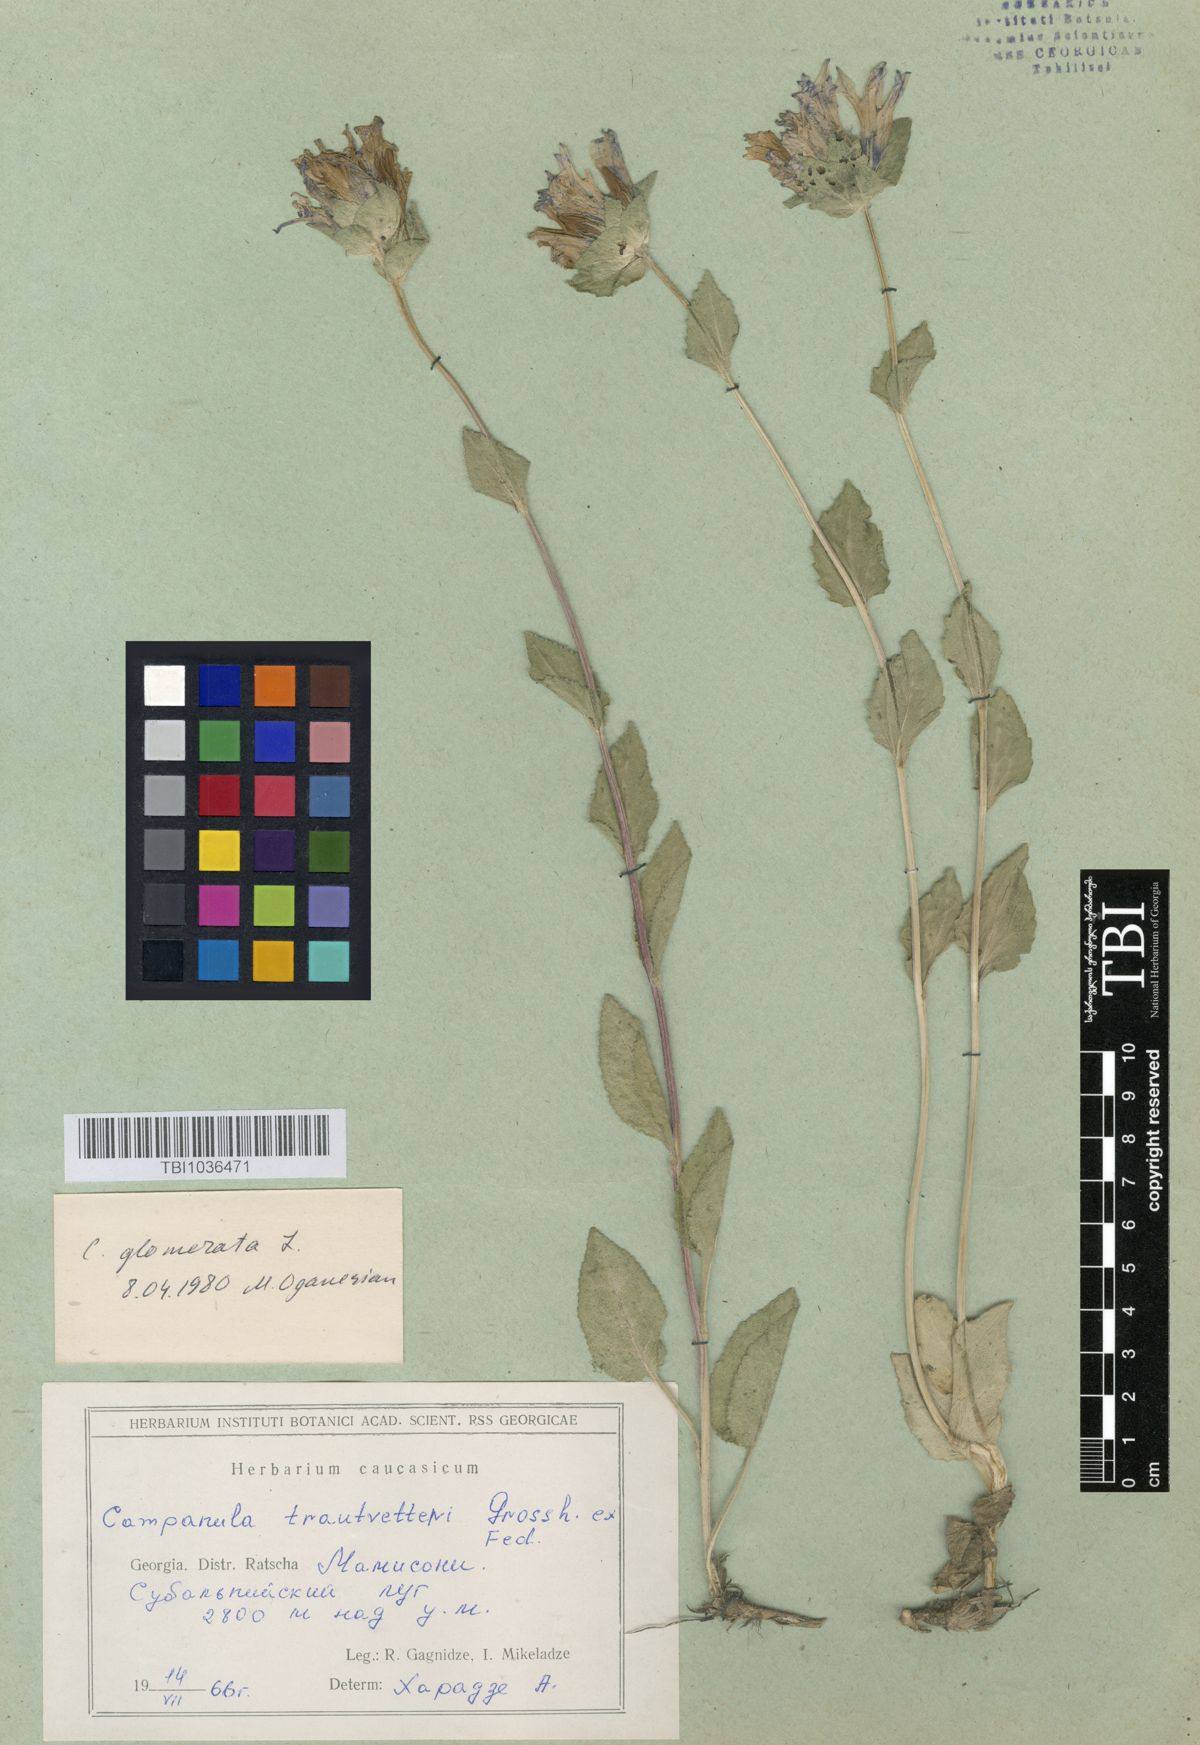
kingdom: Plantae
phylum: Tracheophyta
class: Magnoliopsida
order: Asterales
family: Campanulaceae
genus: Campanula
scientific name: Campanula glomerata
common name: Clustered bellflower
